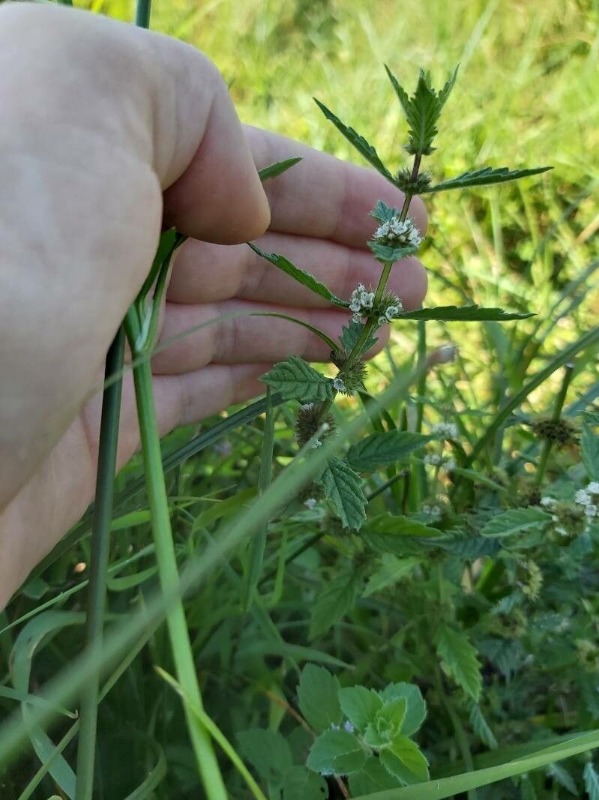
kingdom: Plantae
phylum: Tracheophyta
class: Magnoliopsida
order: Lamiales
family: Lamiaceae
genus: Lycopus
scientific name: Lycopus europaeus
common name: Sværtevæld
